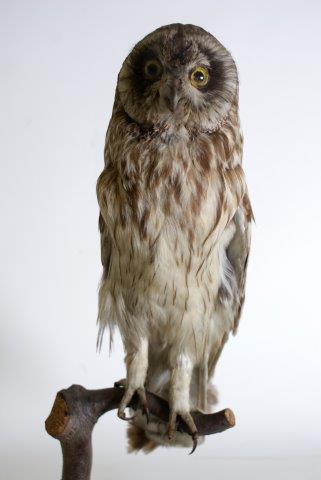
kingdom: Animalia
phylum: Chordata
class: Aves
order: Strigiformes
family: Strigidae
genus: Asio
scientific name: Asio flammeus
